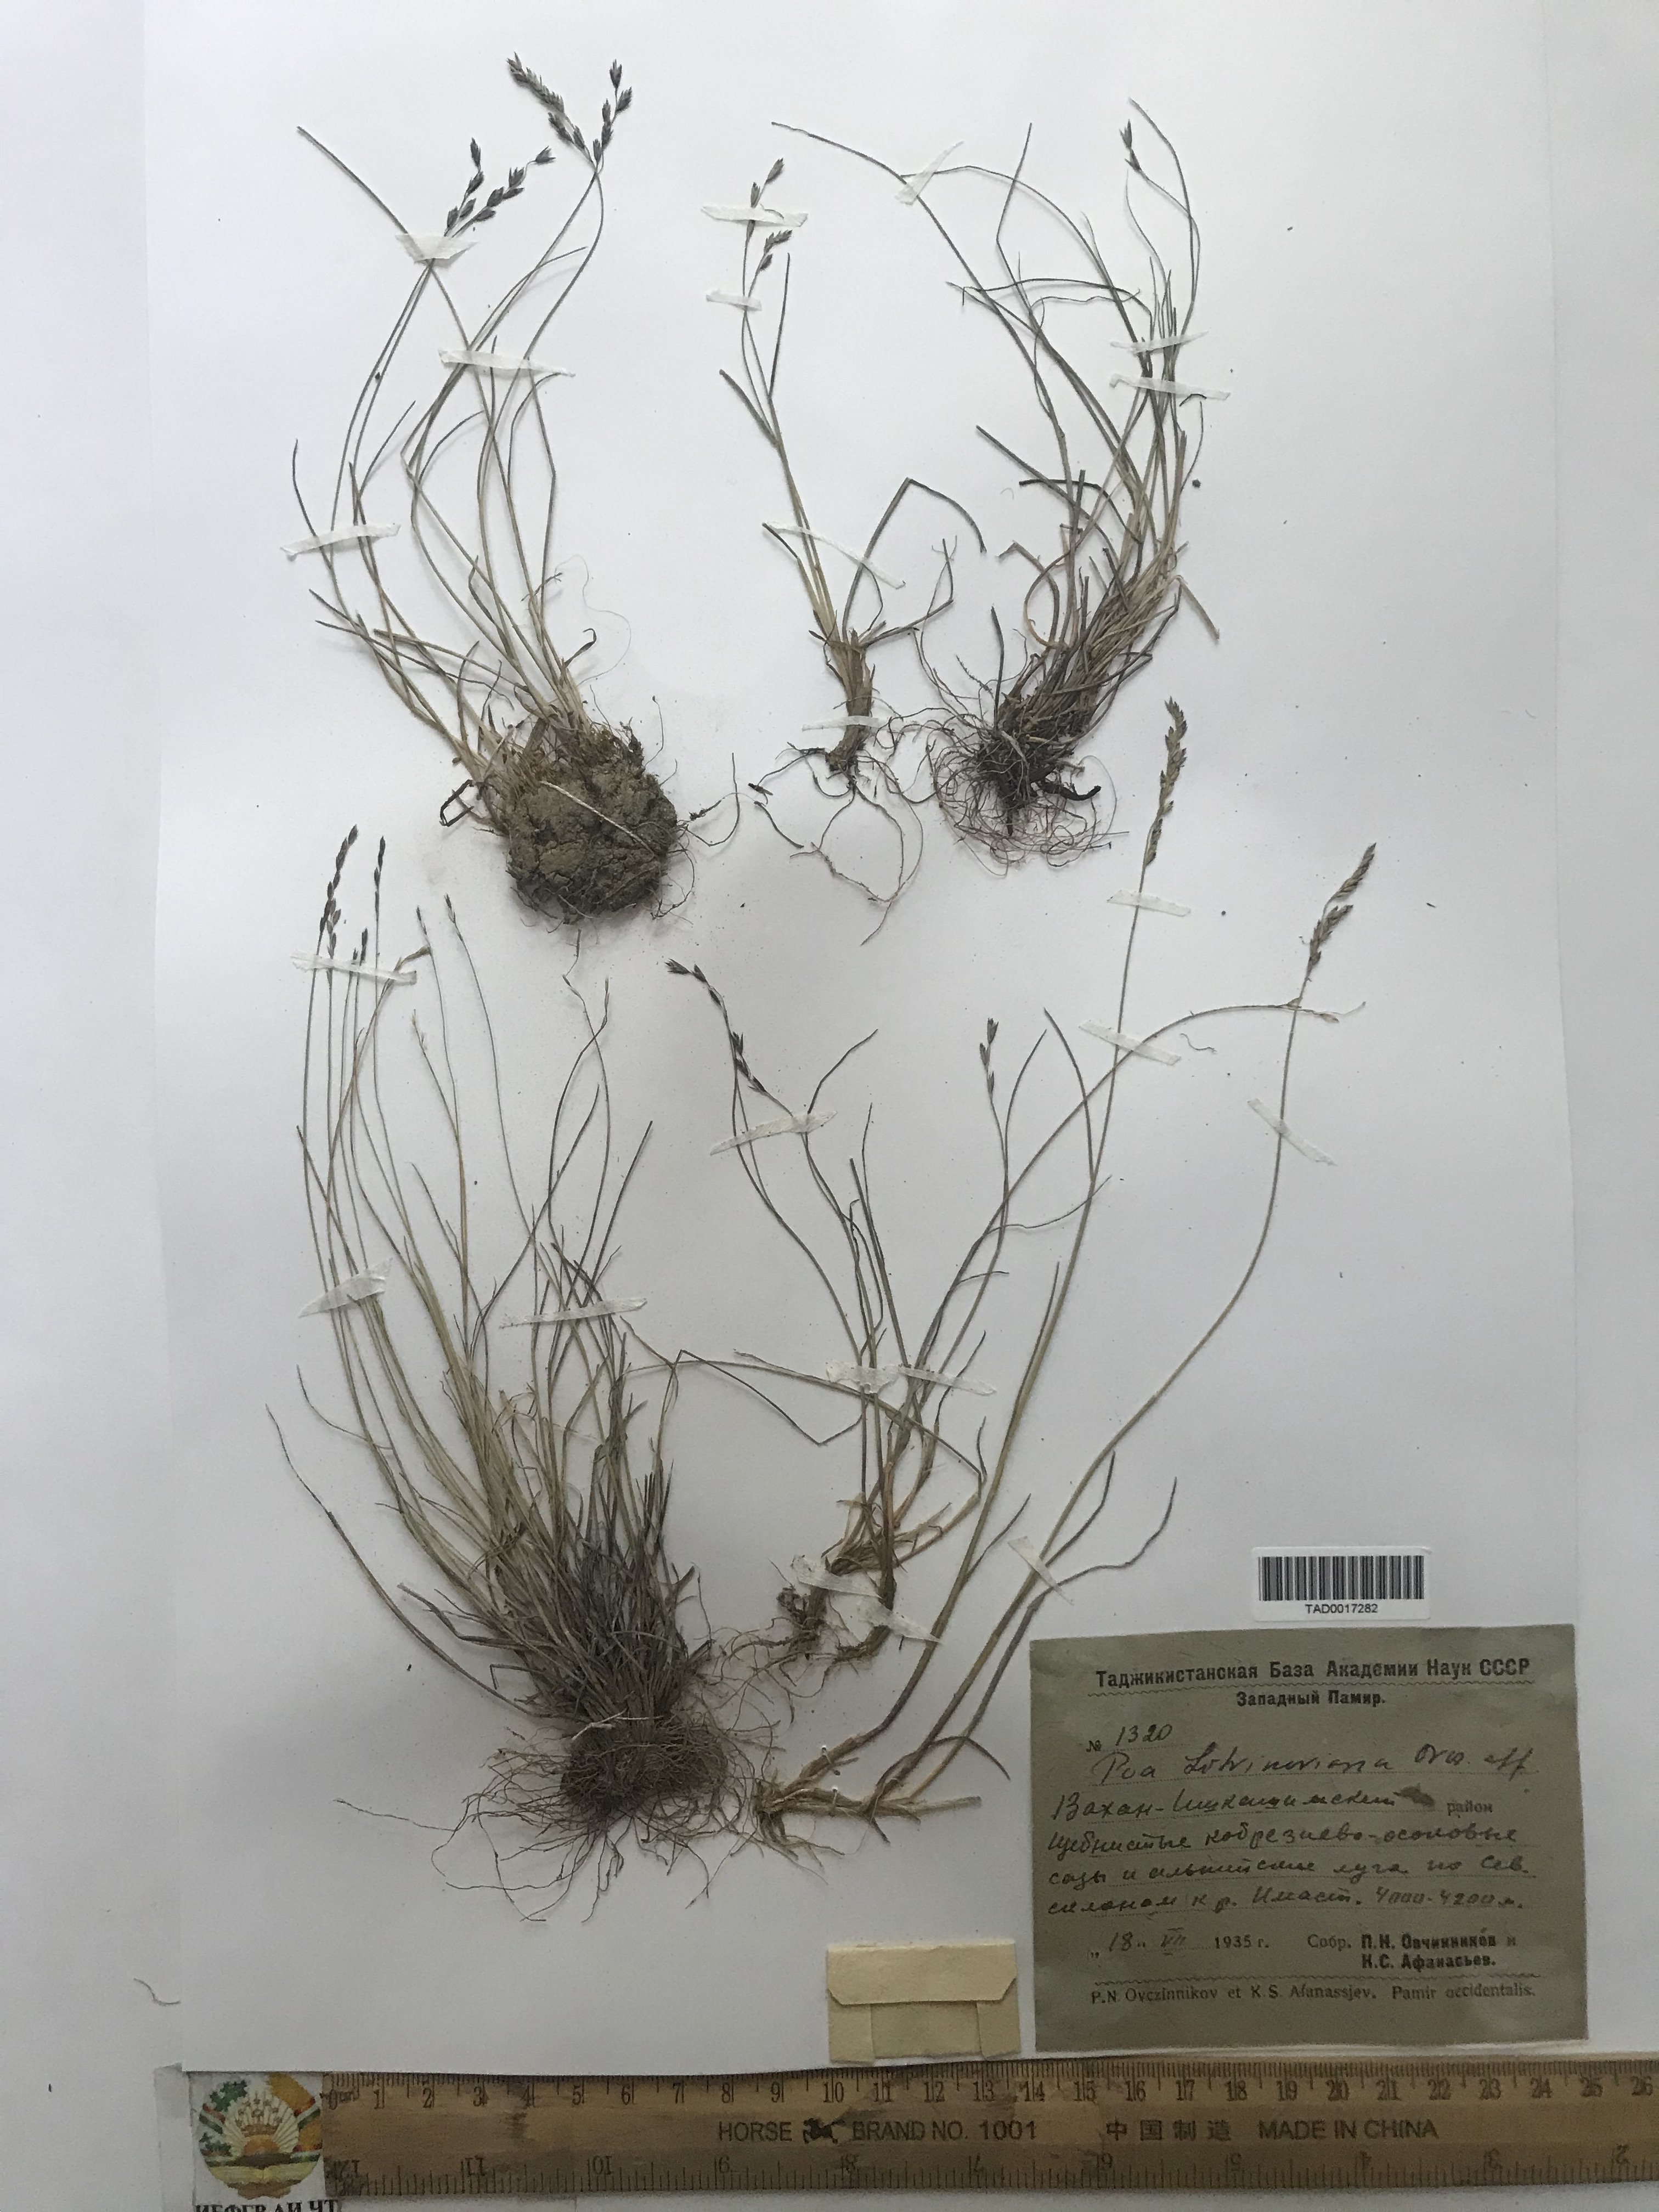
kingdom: Plantae
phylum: Tracheophyta
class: Liliopsida
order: Poales
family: Poaceae
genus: Poa
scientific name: Poa glauca
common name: Glaucous bluegrass
